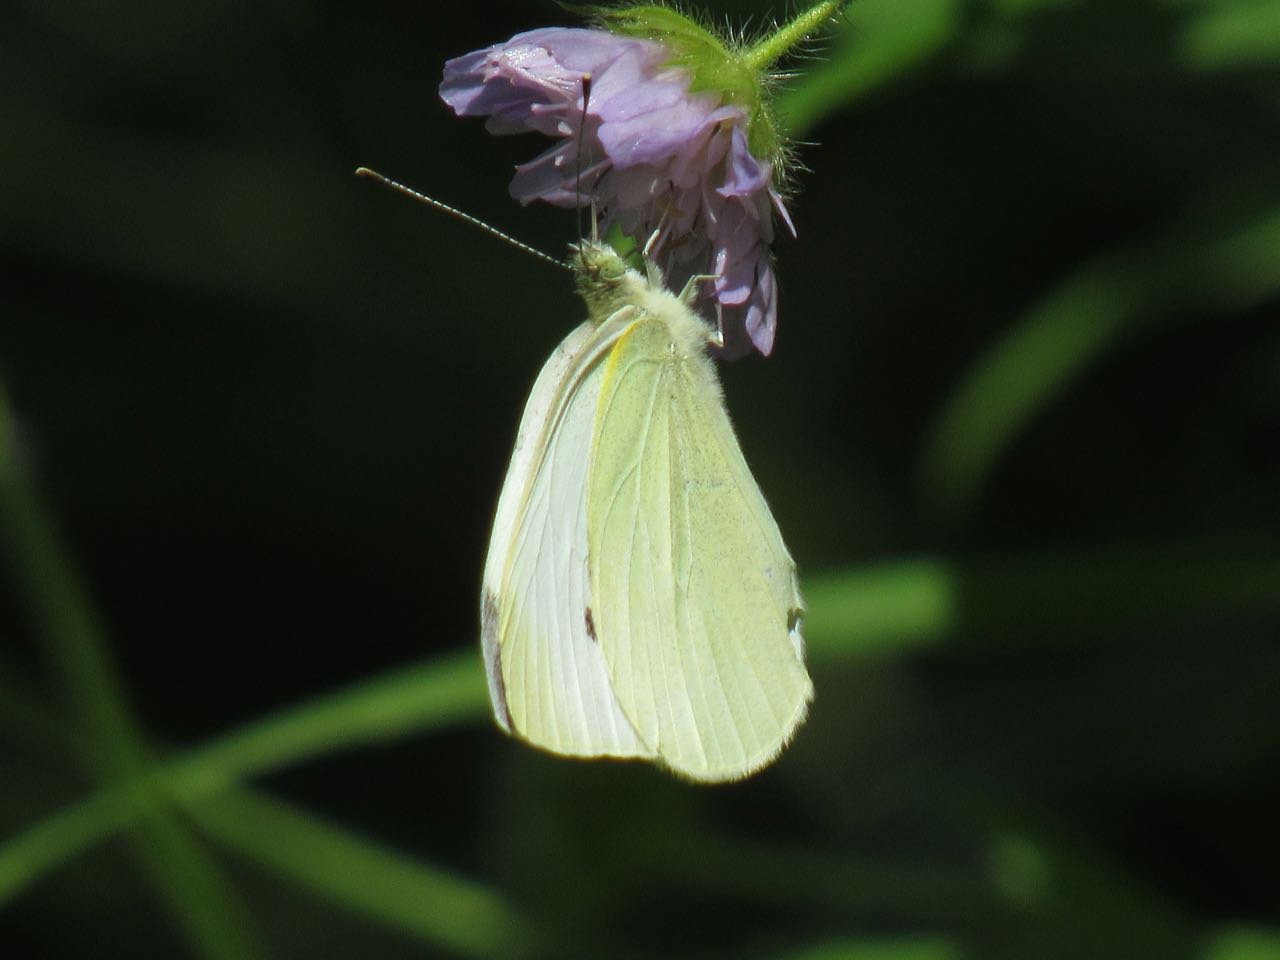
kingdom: Animalia
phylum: Arthropoda
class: Insecta
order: Lepidoptera
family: Pieridae
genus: Pieris
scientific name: Pieris rapae
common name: Cabbage White
